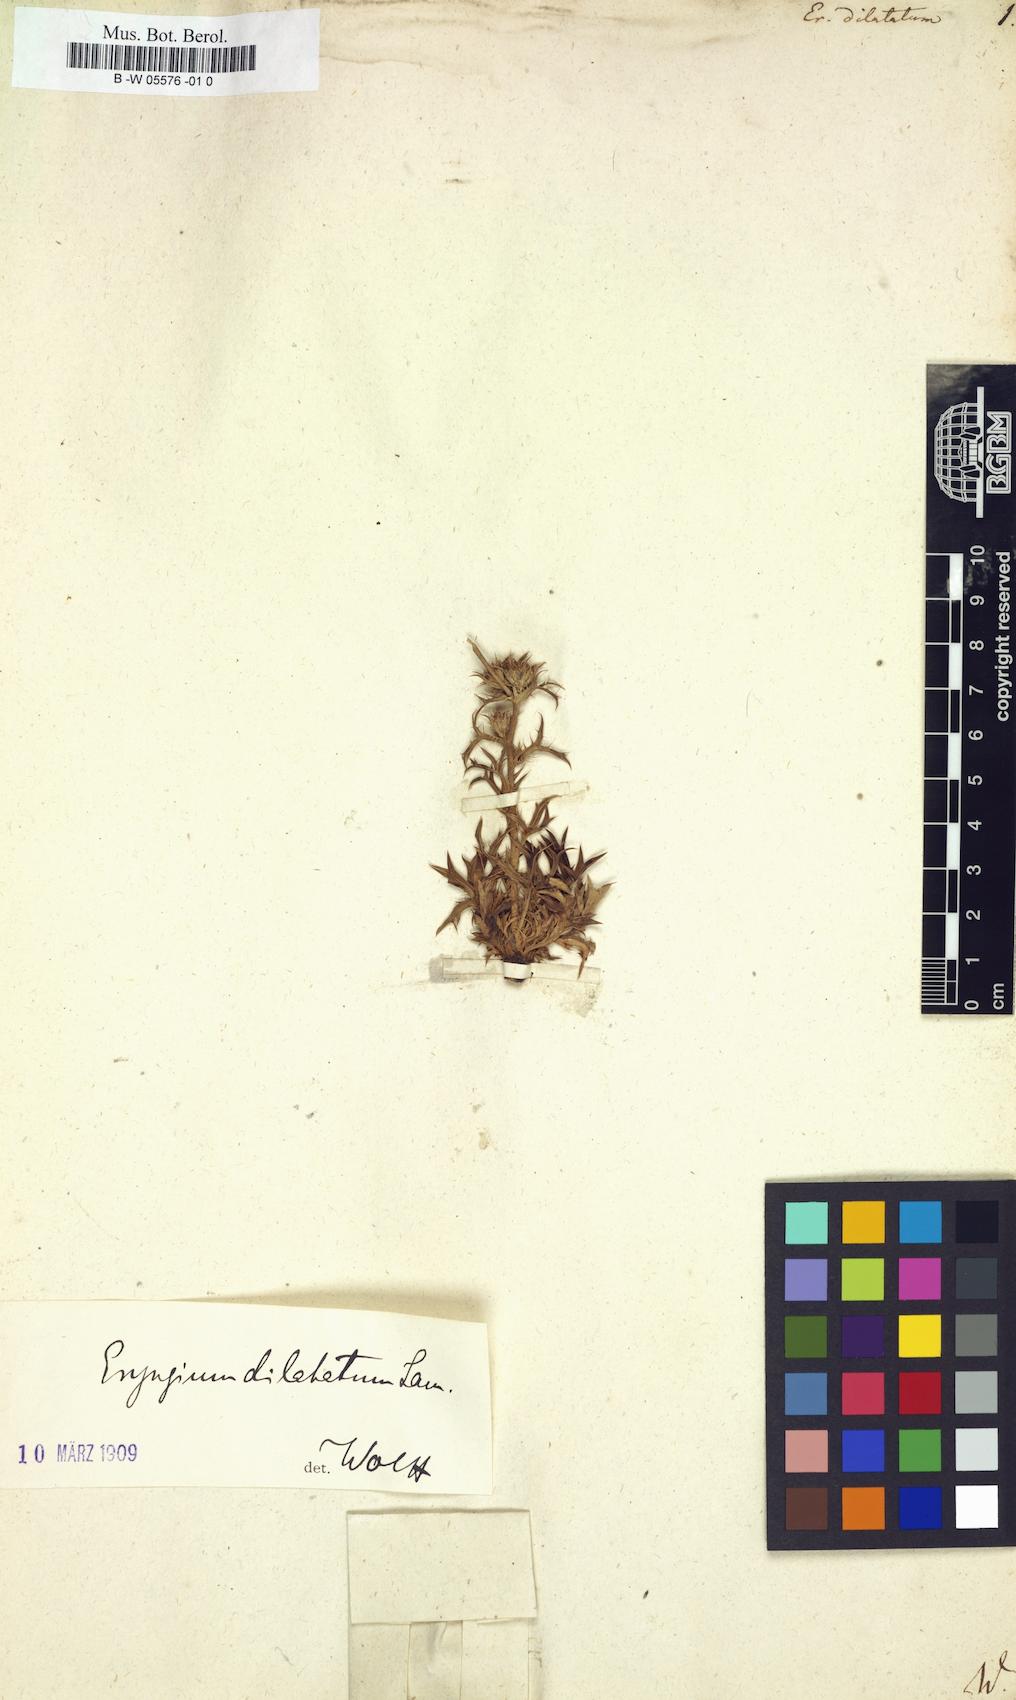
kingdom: Plantae
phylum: Tracheophyta
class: Magnoliopsida
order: Apiales
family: Apiaceae
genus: Eryngium
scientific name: Eryngium dilatatum
